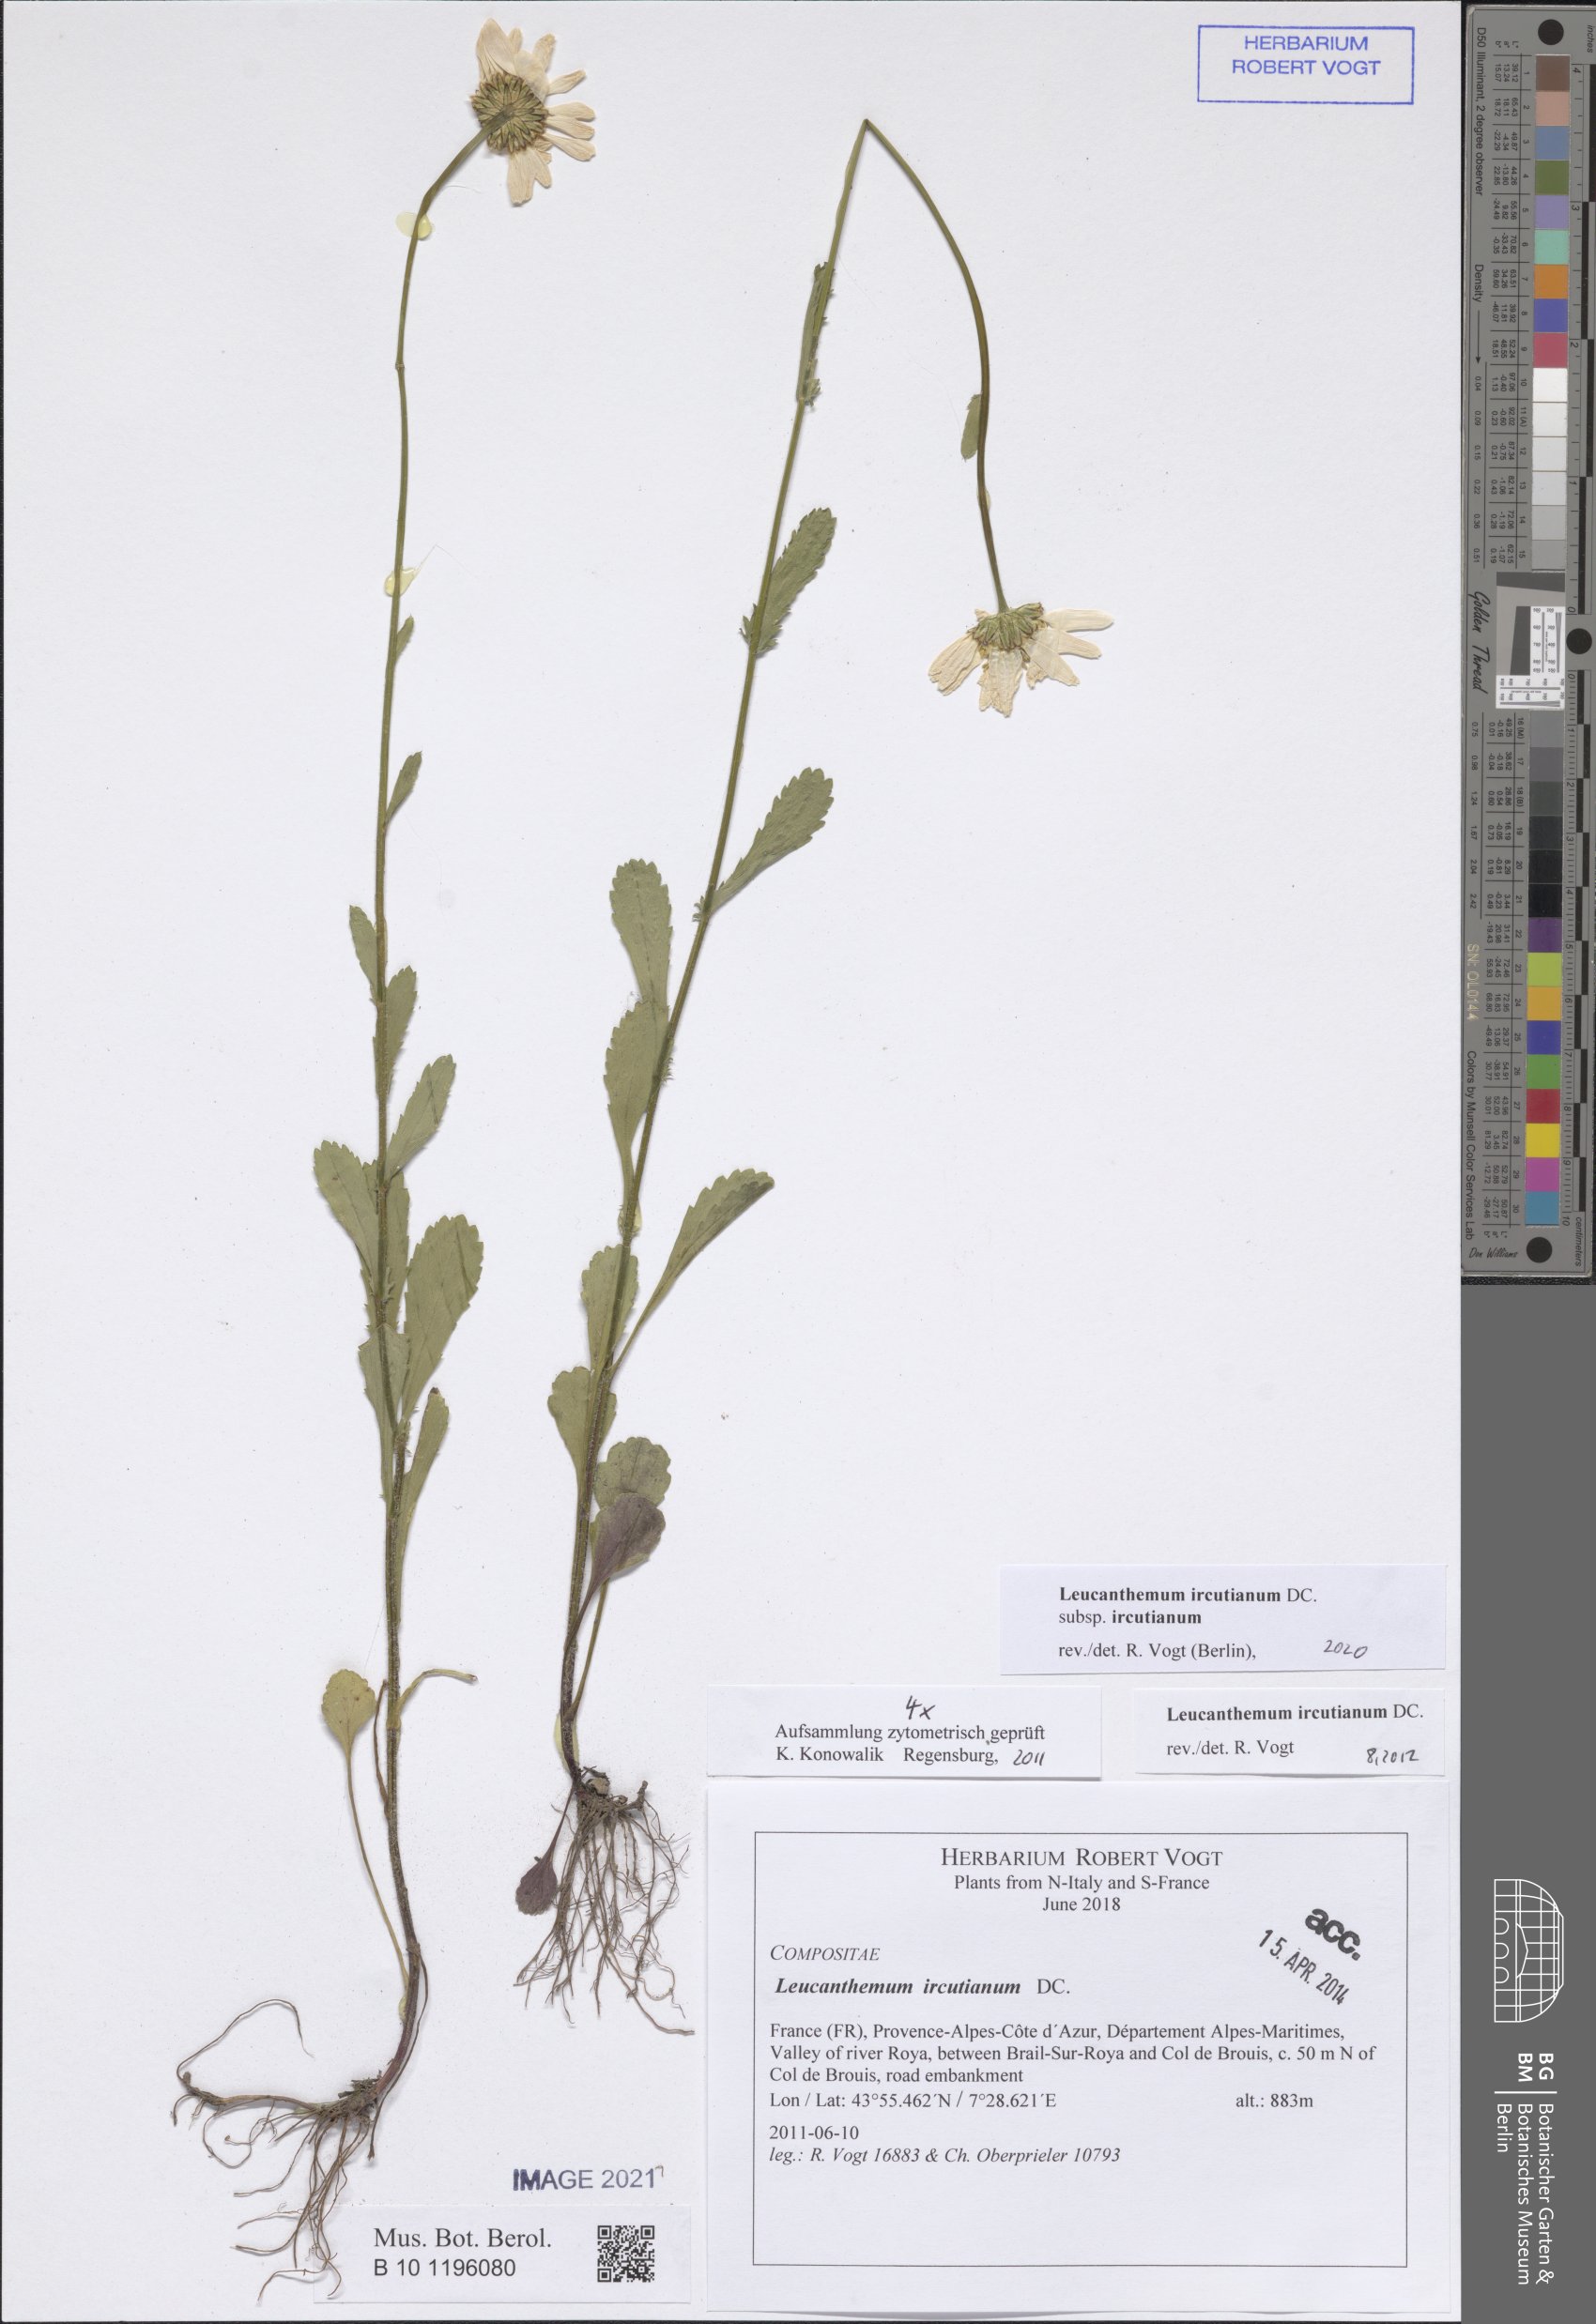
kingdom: Plantae
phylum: Tracheophyta
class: Magnoliopsida
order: Asterales
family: Asteraceae
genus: Leucanthemum
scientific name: Leucanthemum ircutianum
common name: Daisy
